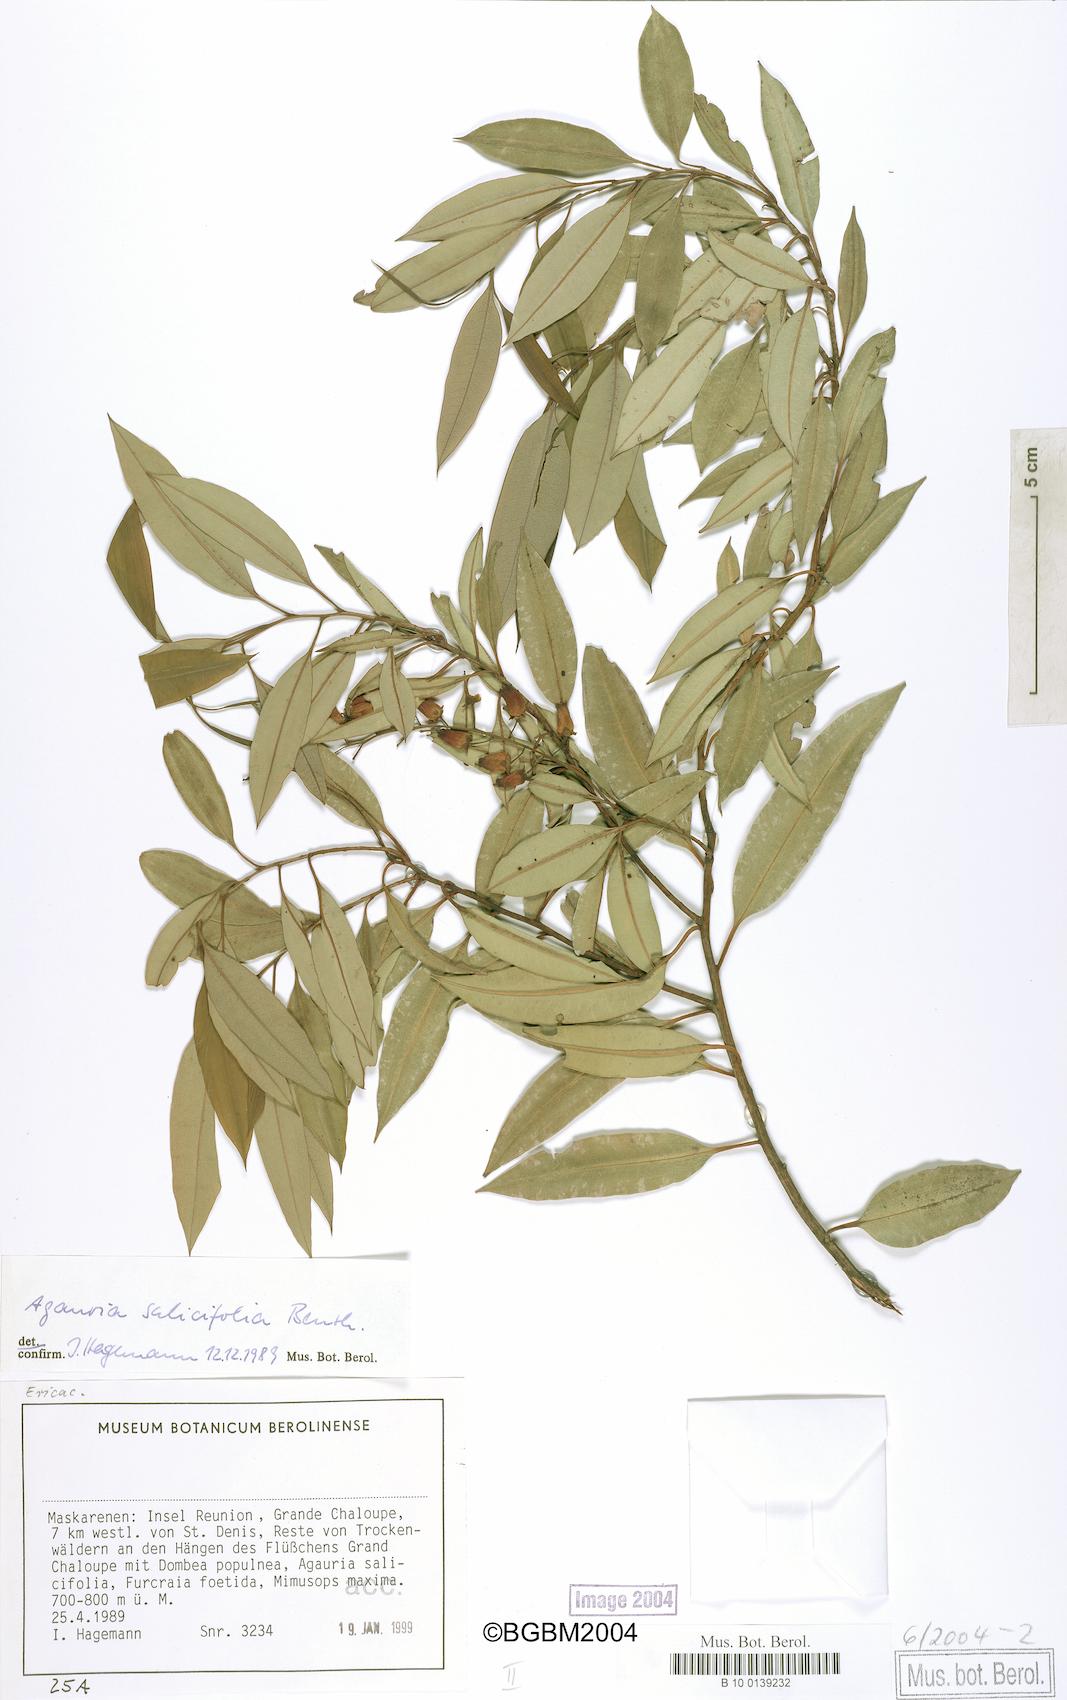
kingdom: Plantae
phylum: Tracheophyta
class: Magnoliopsida
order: Ericales
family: Ericaceae
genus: Agarista
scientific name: Agarista salicifolia
